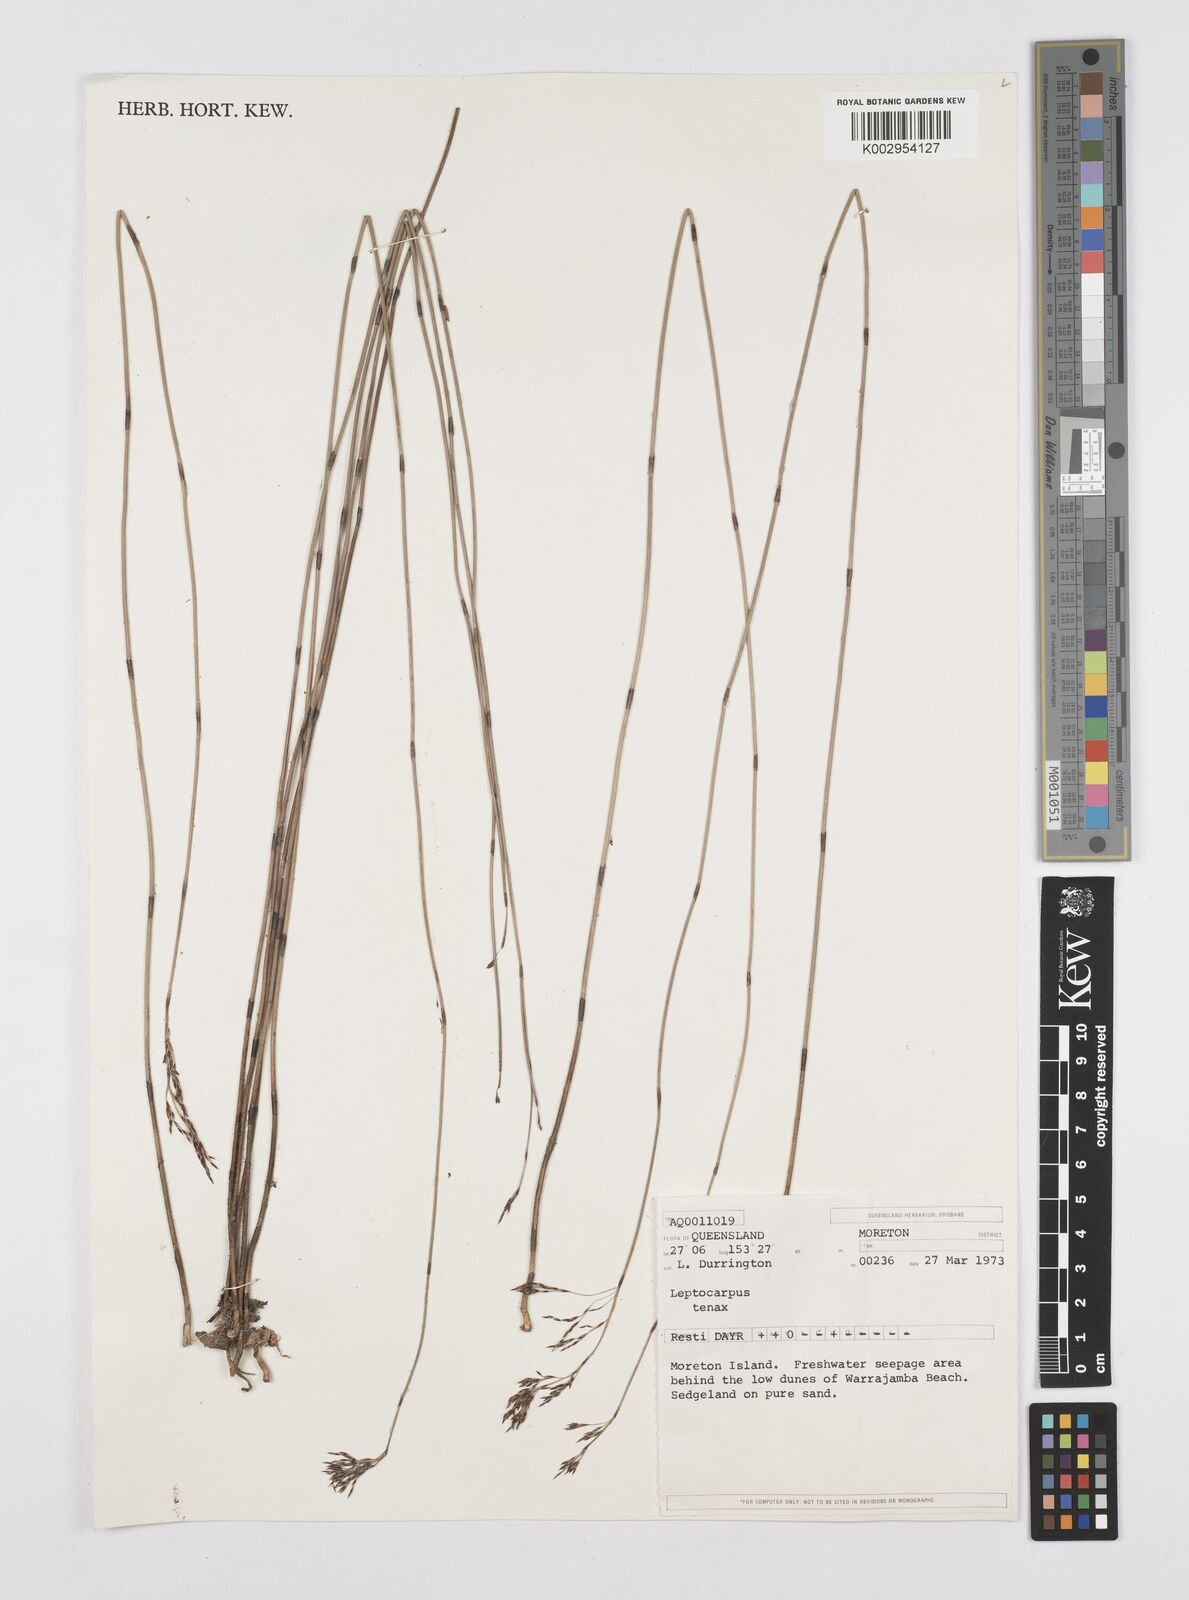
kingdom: Plantae
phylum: Tracheophyta
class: Liliopsida
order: Poales
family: Restionaceae
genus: Leptocarpus
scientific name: Leptocarpus tenax
